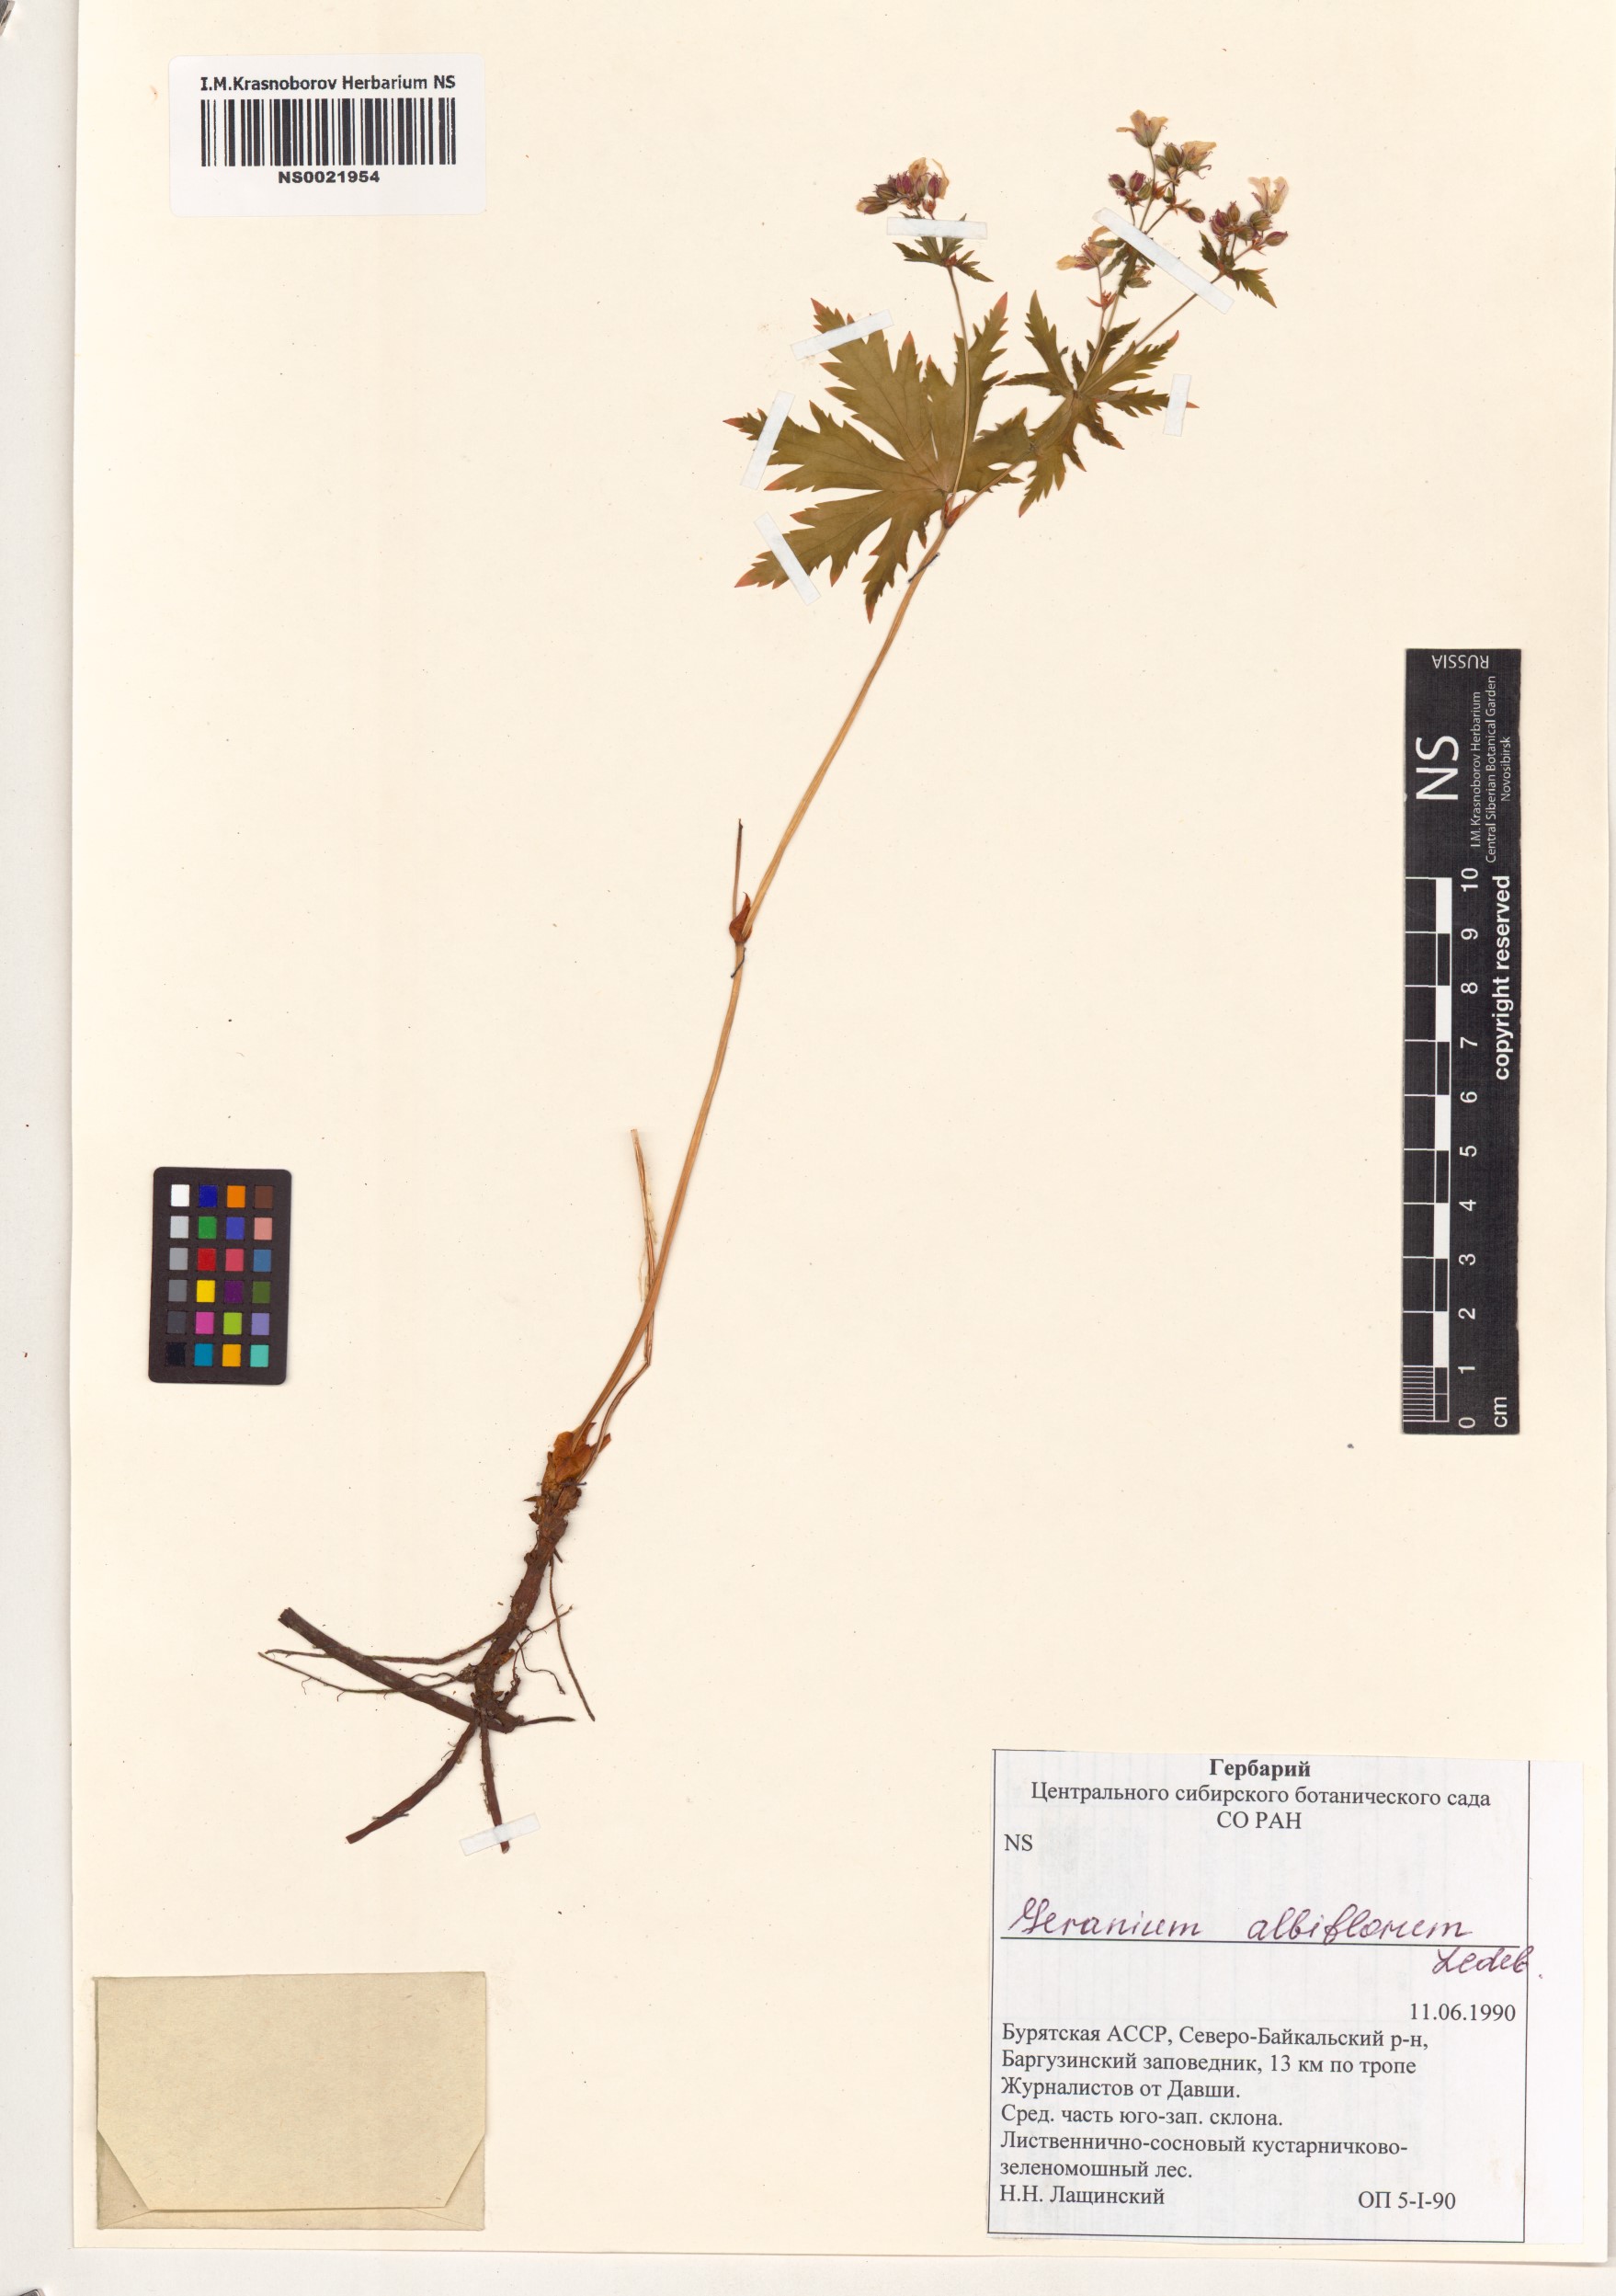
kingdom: Plantae
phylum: Tracheophyta
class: Magnoliopsida
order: Geraniales
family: Geraniaceae
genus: Geranium
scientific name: Geranium albiflorum
